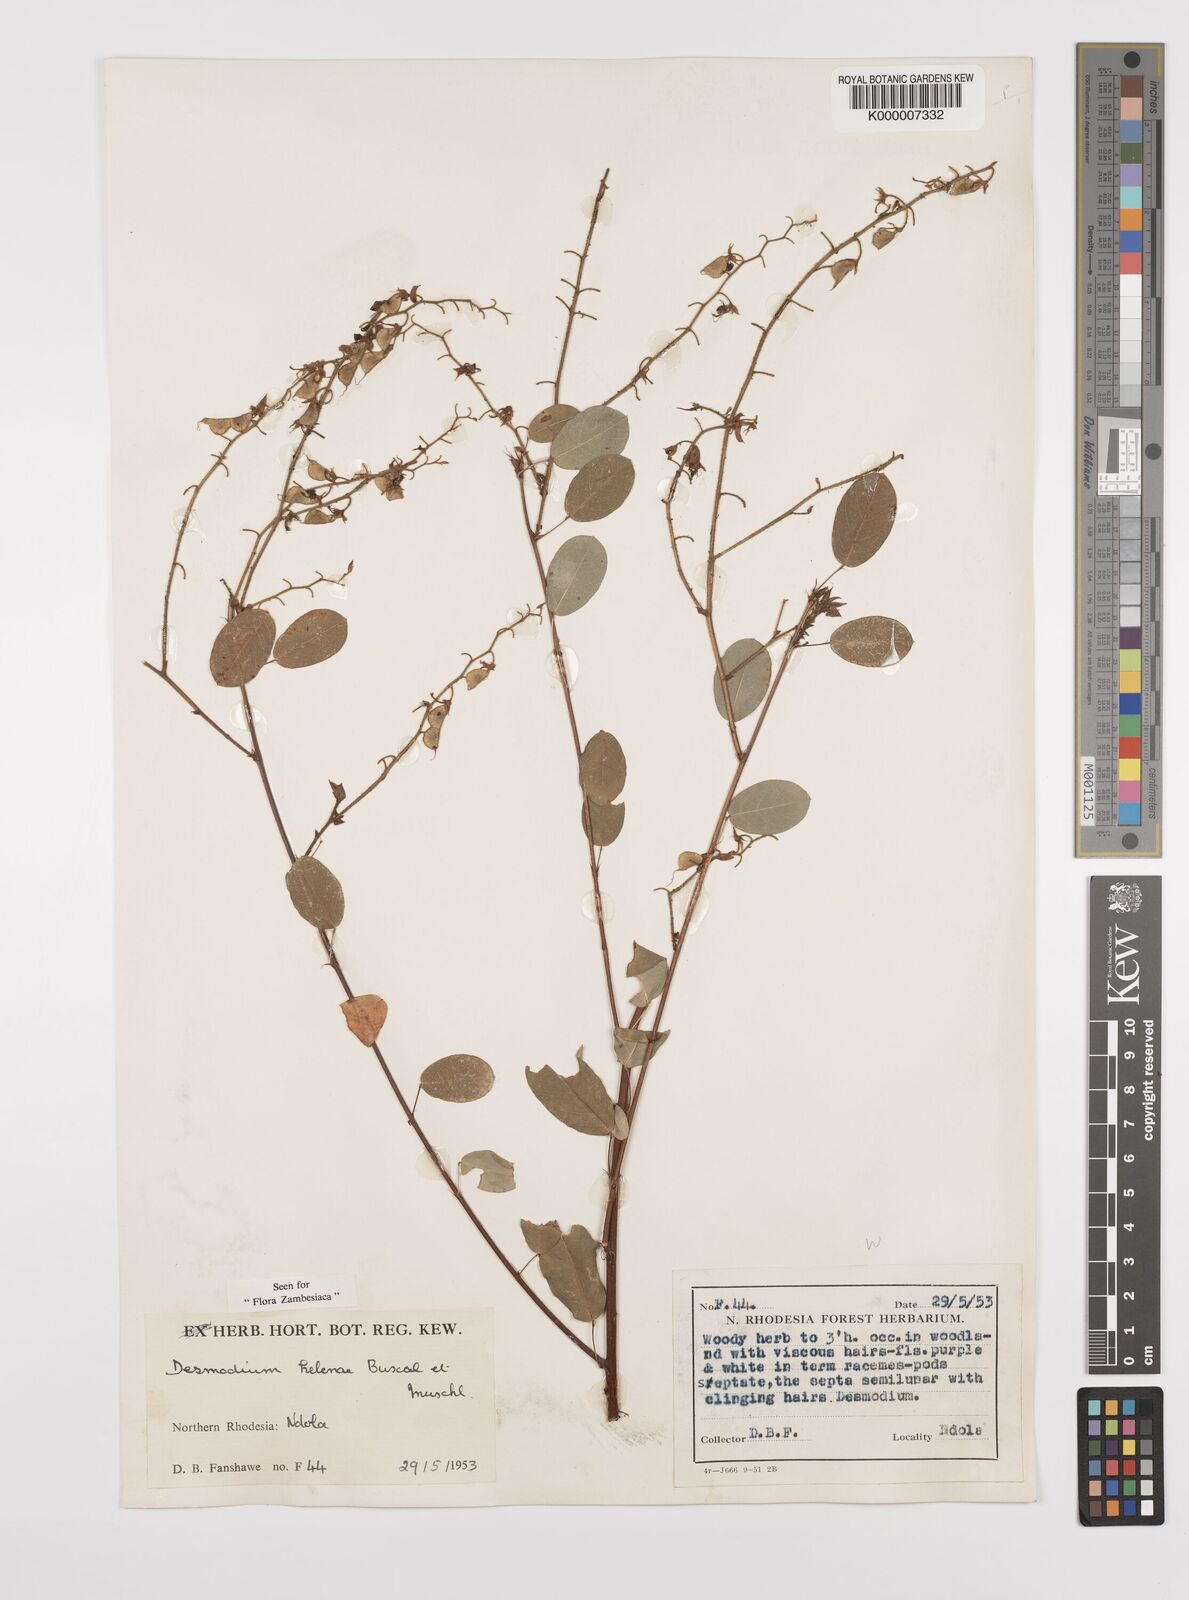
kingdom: Plantae
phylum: Tracheophyta
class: Magnoliopsida
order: Fabales
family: Fabaceae
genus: Grona
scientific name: Grona helenae
